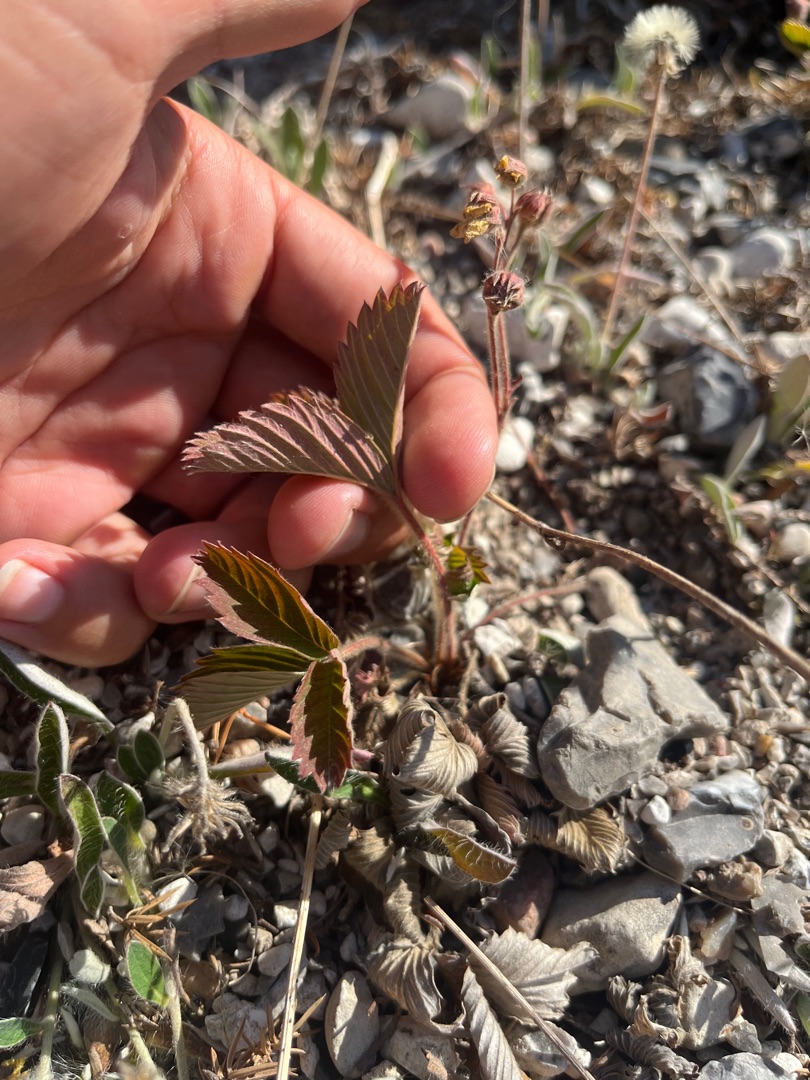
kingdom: Plantae
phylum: Tracheophyta
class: Magnoliopsida
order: Rosales
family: Rosaceae
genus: Fragaria
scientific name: Fragaria viridis
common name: Bakke-jordbær
